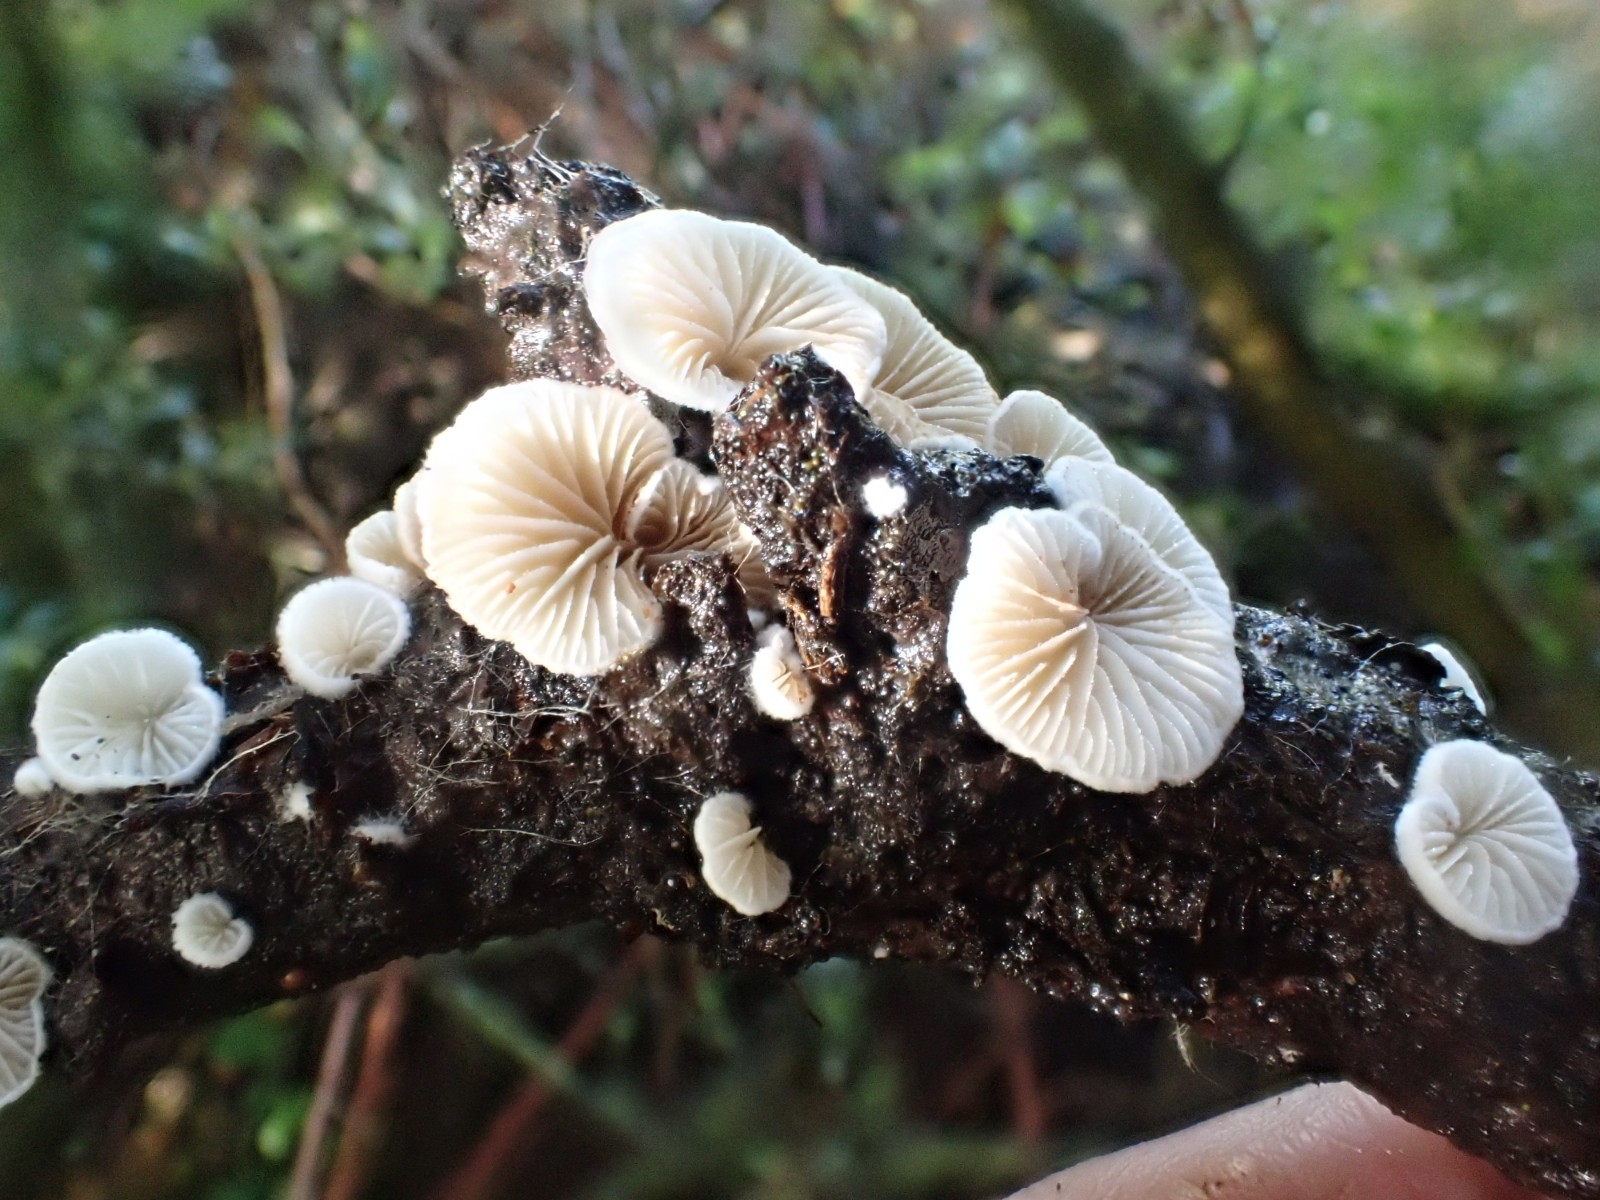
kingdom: Fungi
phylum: Basidiomycota
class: Agaricomycetes
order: Agaricales
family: Crepidotaceae
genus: Crepidotus
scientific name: Crepidotus
